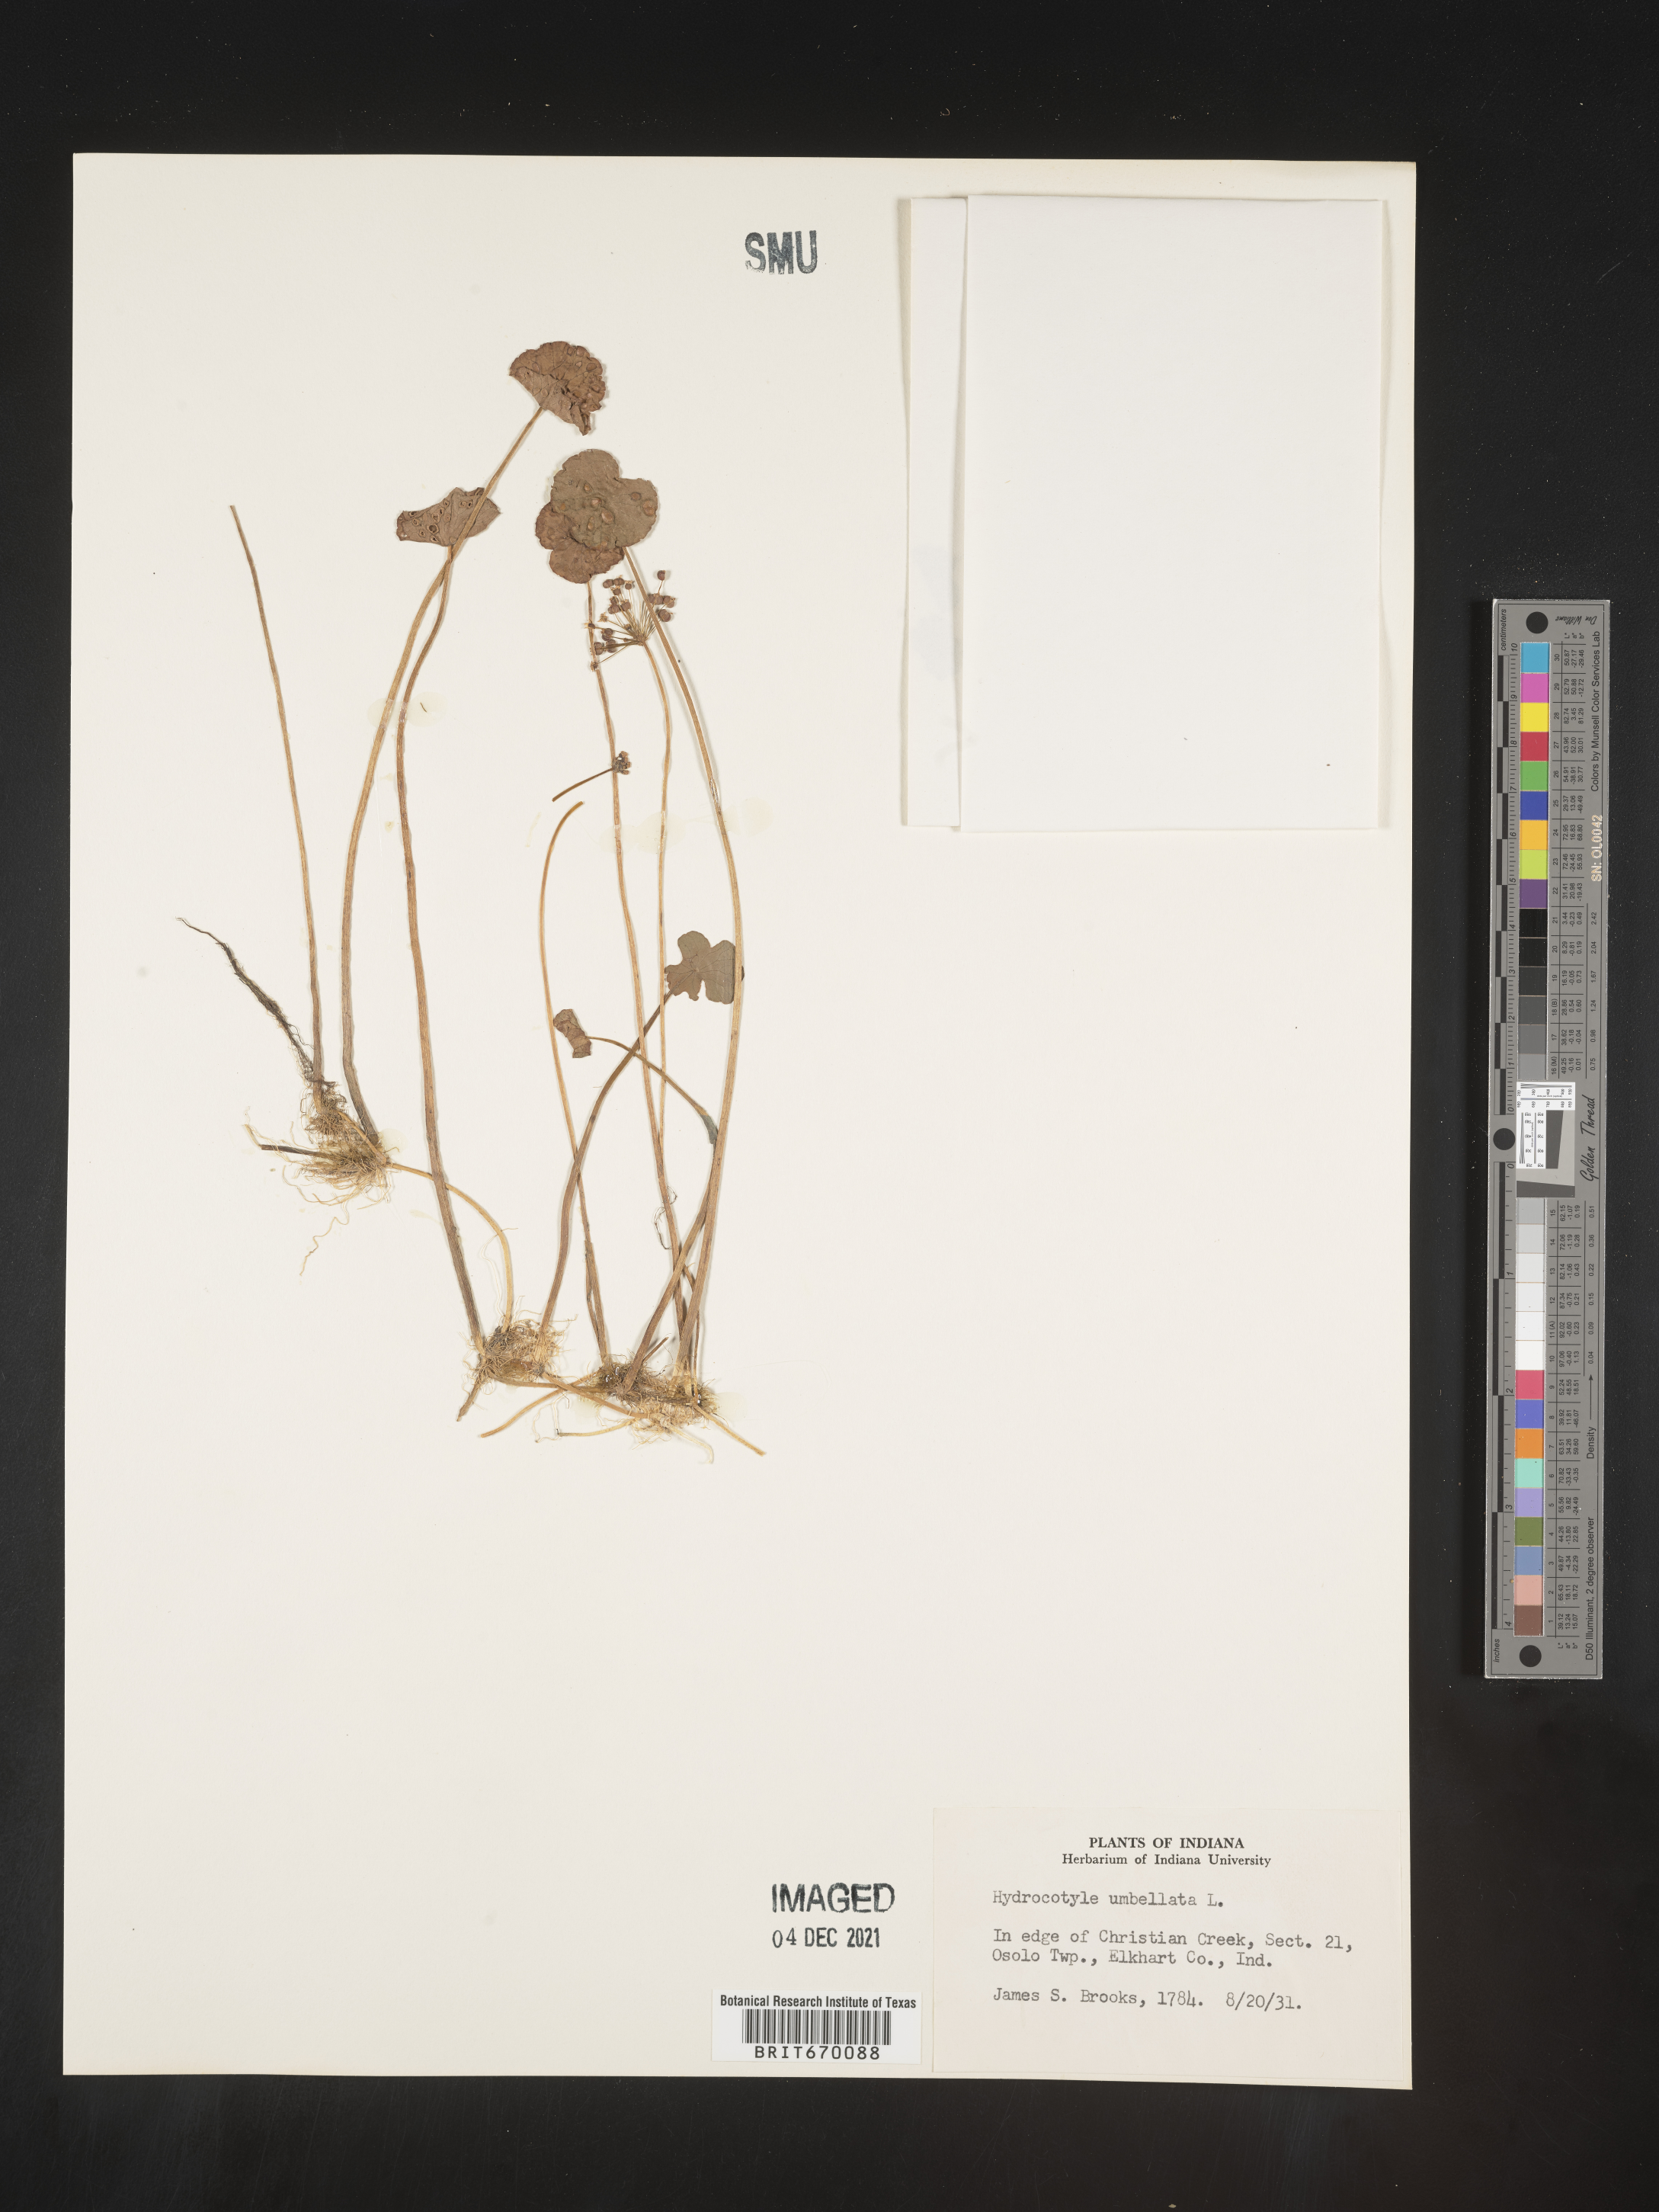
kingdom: Plantae
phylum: Tracheophyta
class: Magnoliopsida
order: Apiales
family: Araliaceae
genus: Hydrocotyle
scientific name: Hydrocotyle umbellata
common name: Water pennywort
